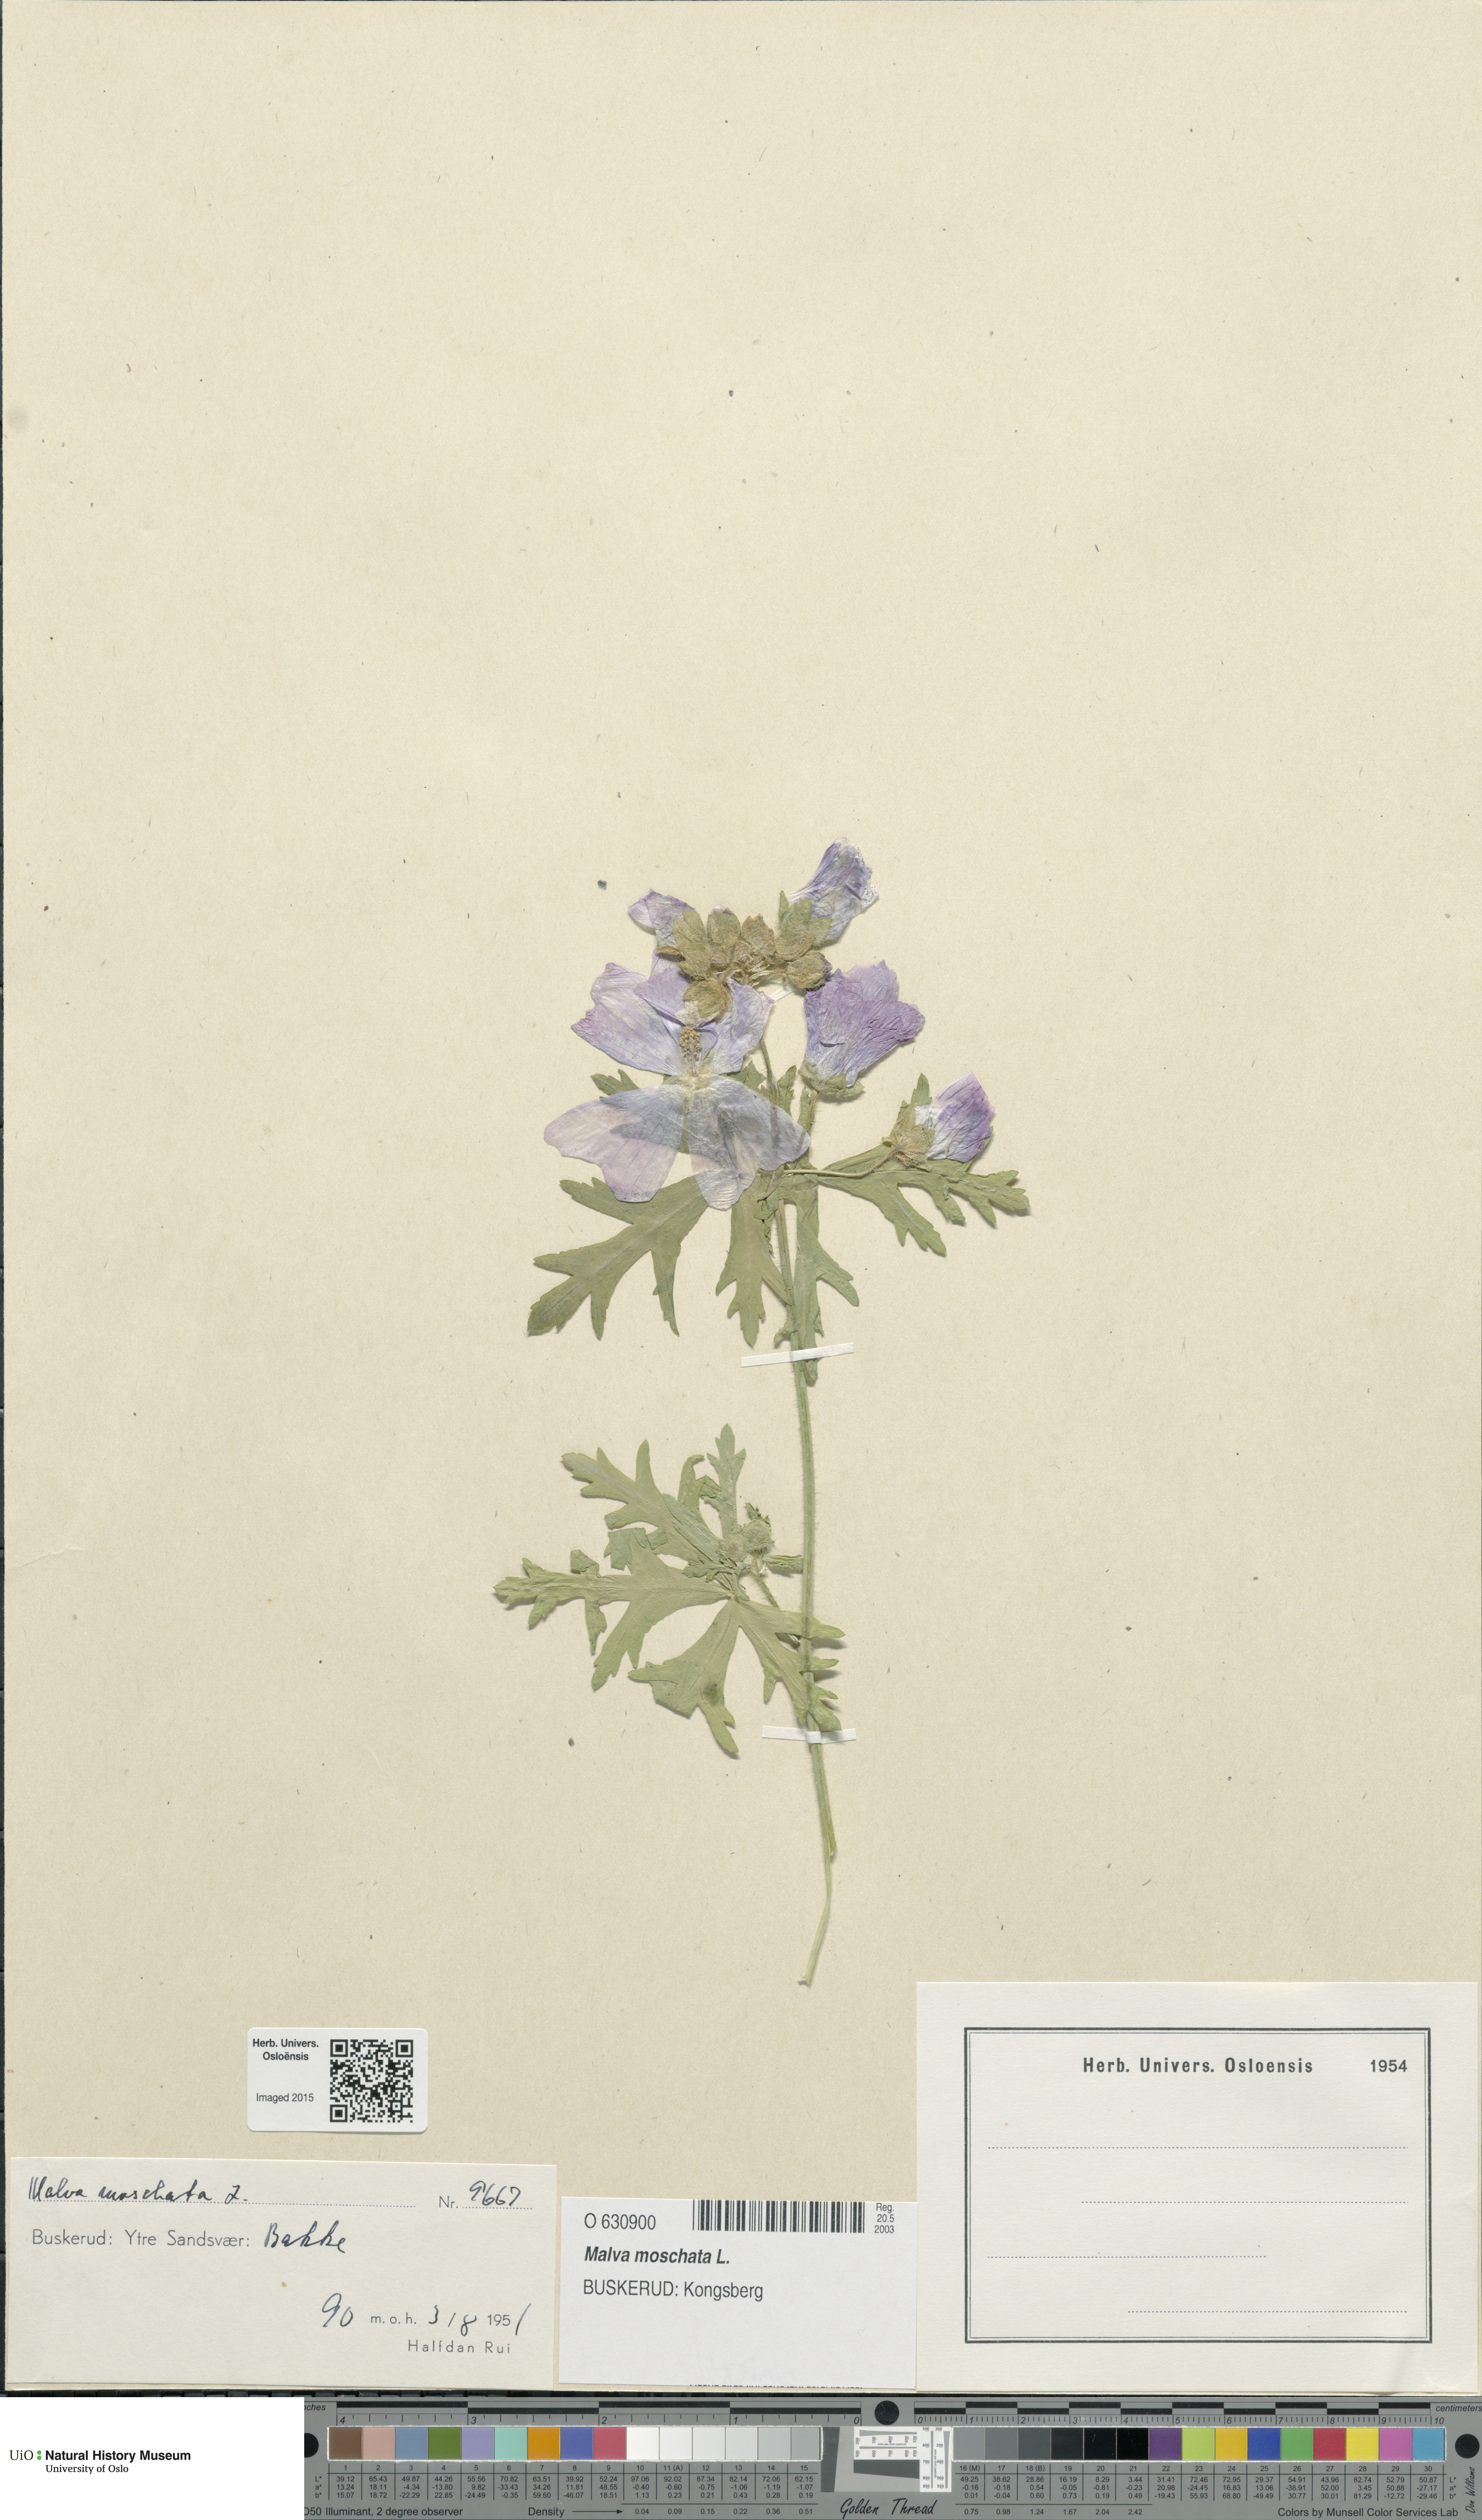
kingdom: Plantae
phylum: Tracheophyta
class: Magnoliopsida
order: Malvales
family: Malvaceae
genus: Malva
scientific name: Malva moschata
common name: Musk mallow
